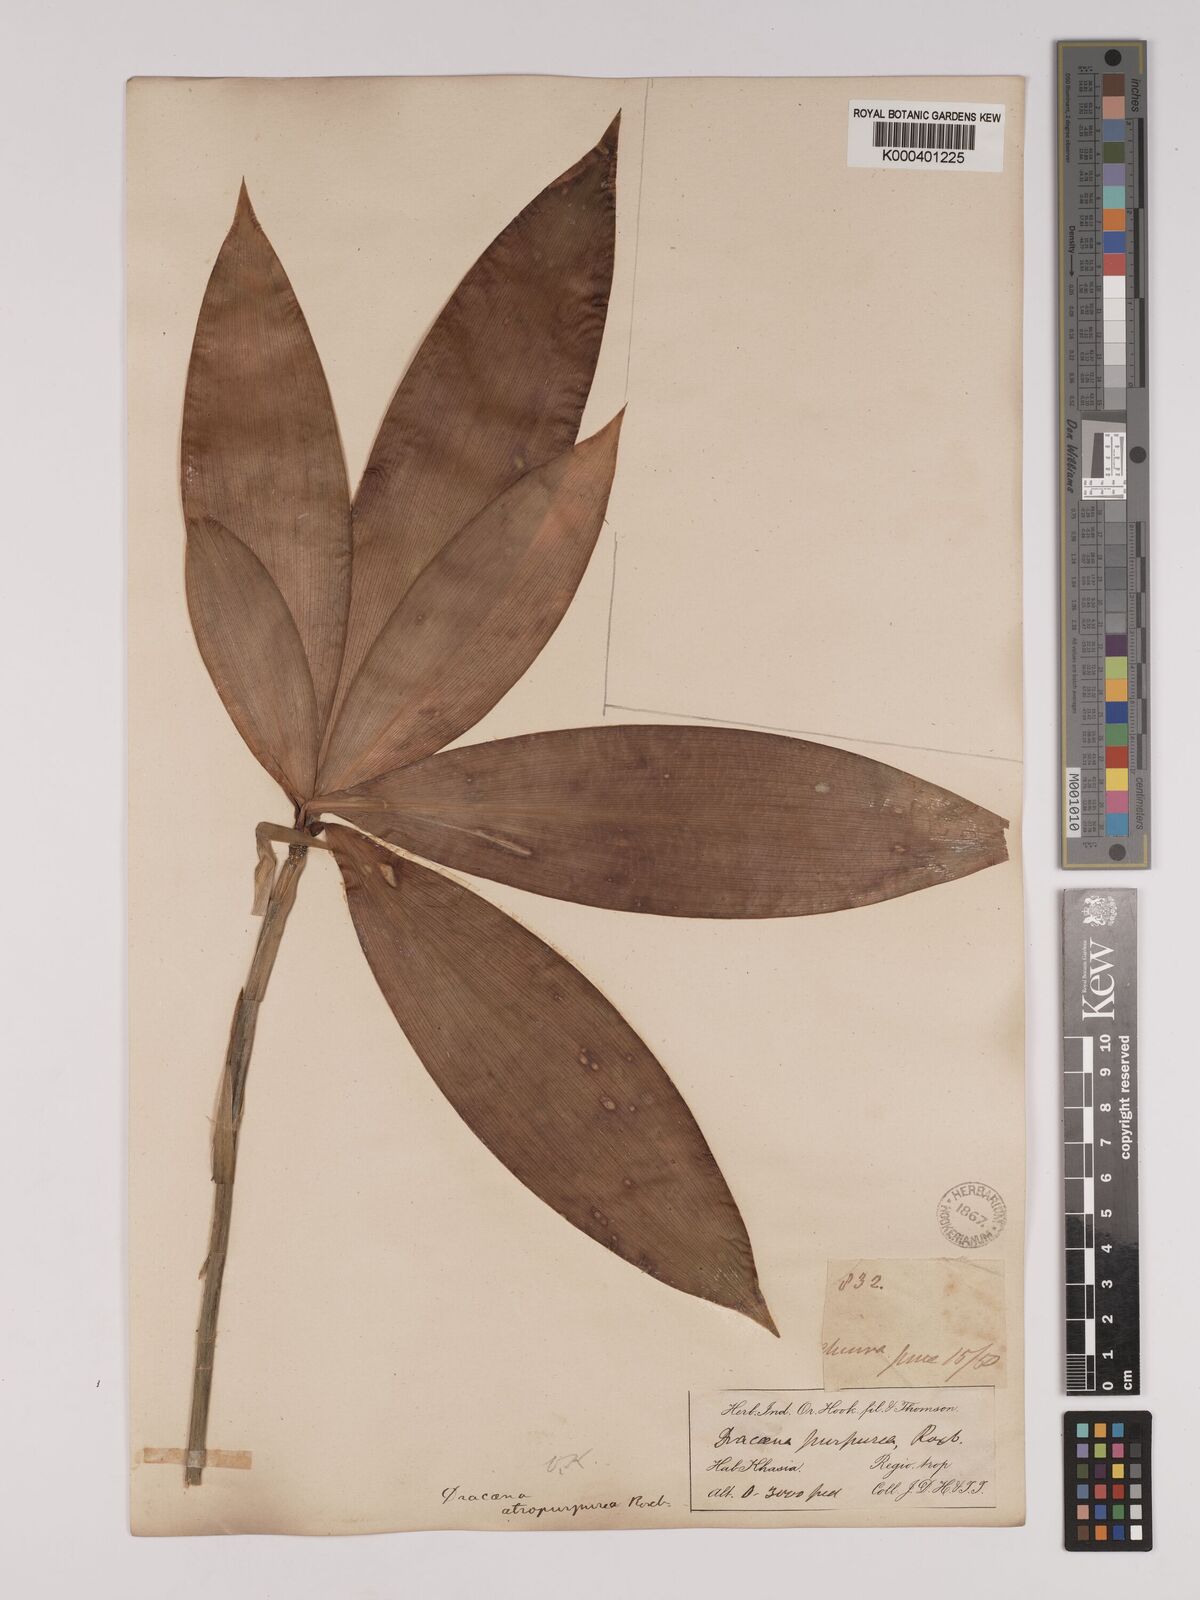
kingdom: Plantae
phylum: Tracheophyta
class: Liliopsida
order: Asparagales
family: Asparagaceae
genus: Dracaena
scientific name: Dracaena elliptica
